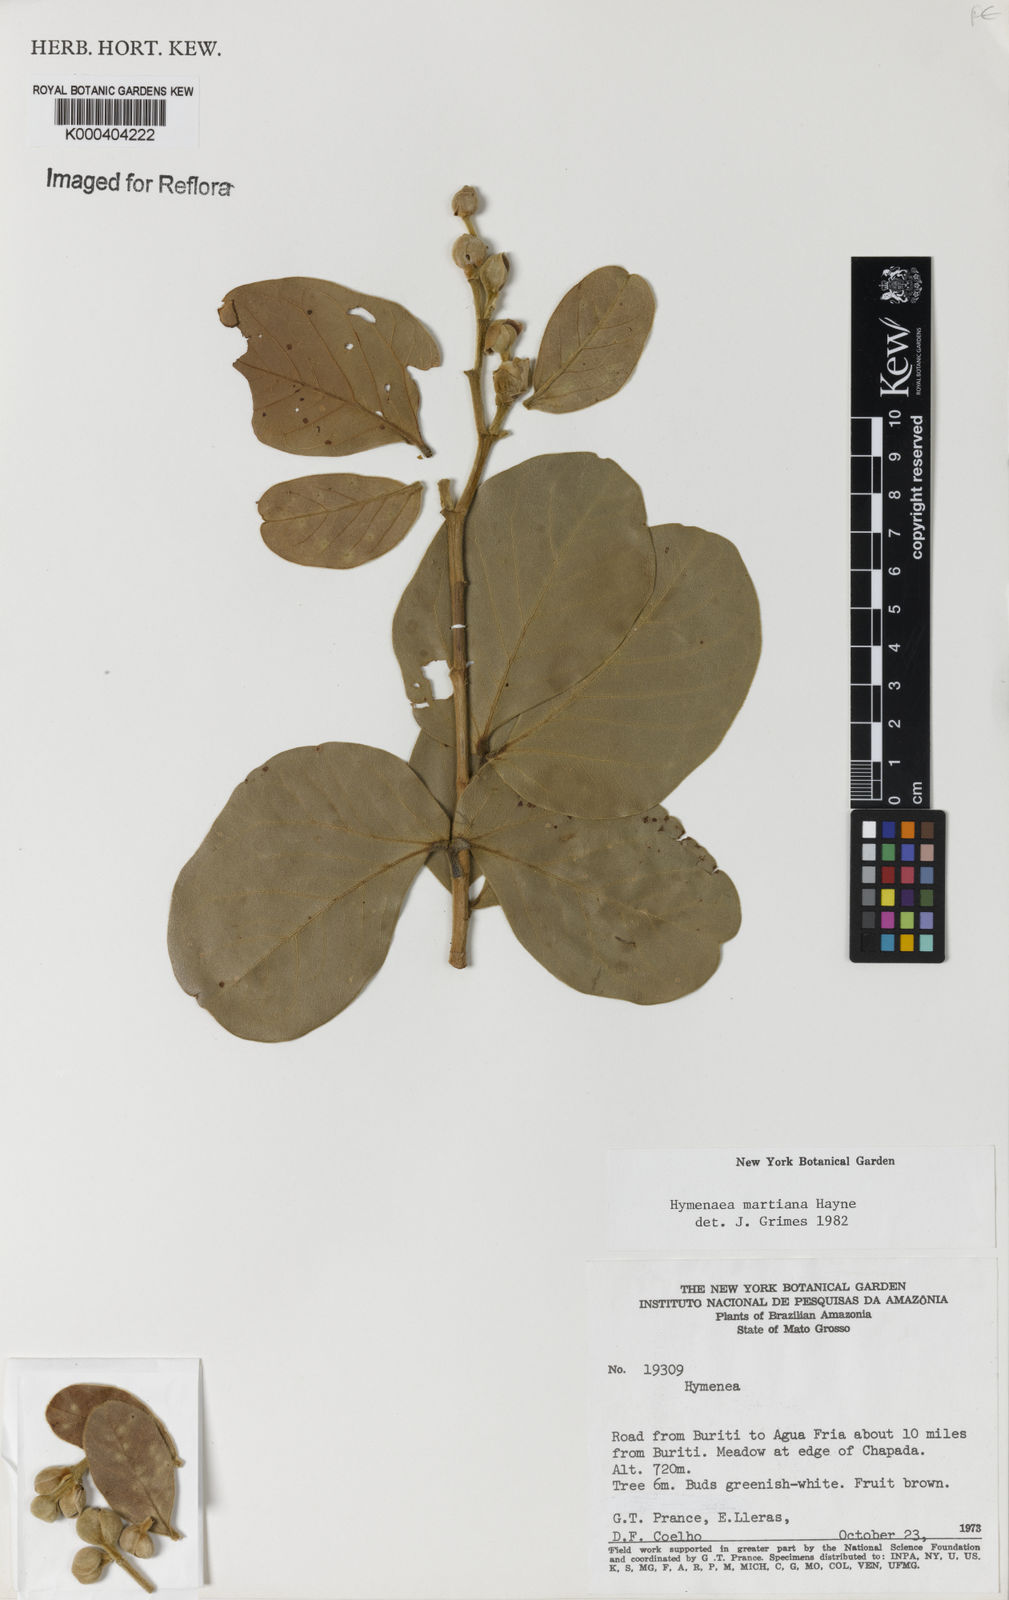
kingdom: Plantae
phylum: Tracheophyta
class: Magnoliopsida
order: Fabales
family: Fabaceae
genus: Hymenaea
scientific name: Hymenaea martiana
